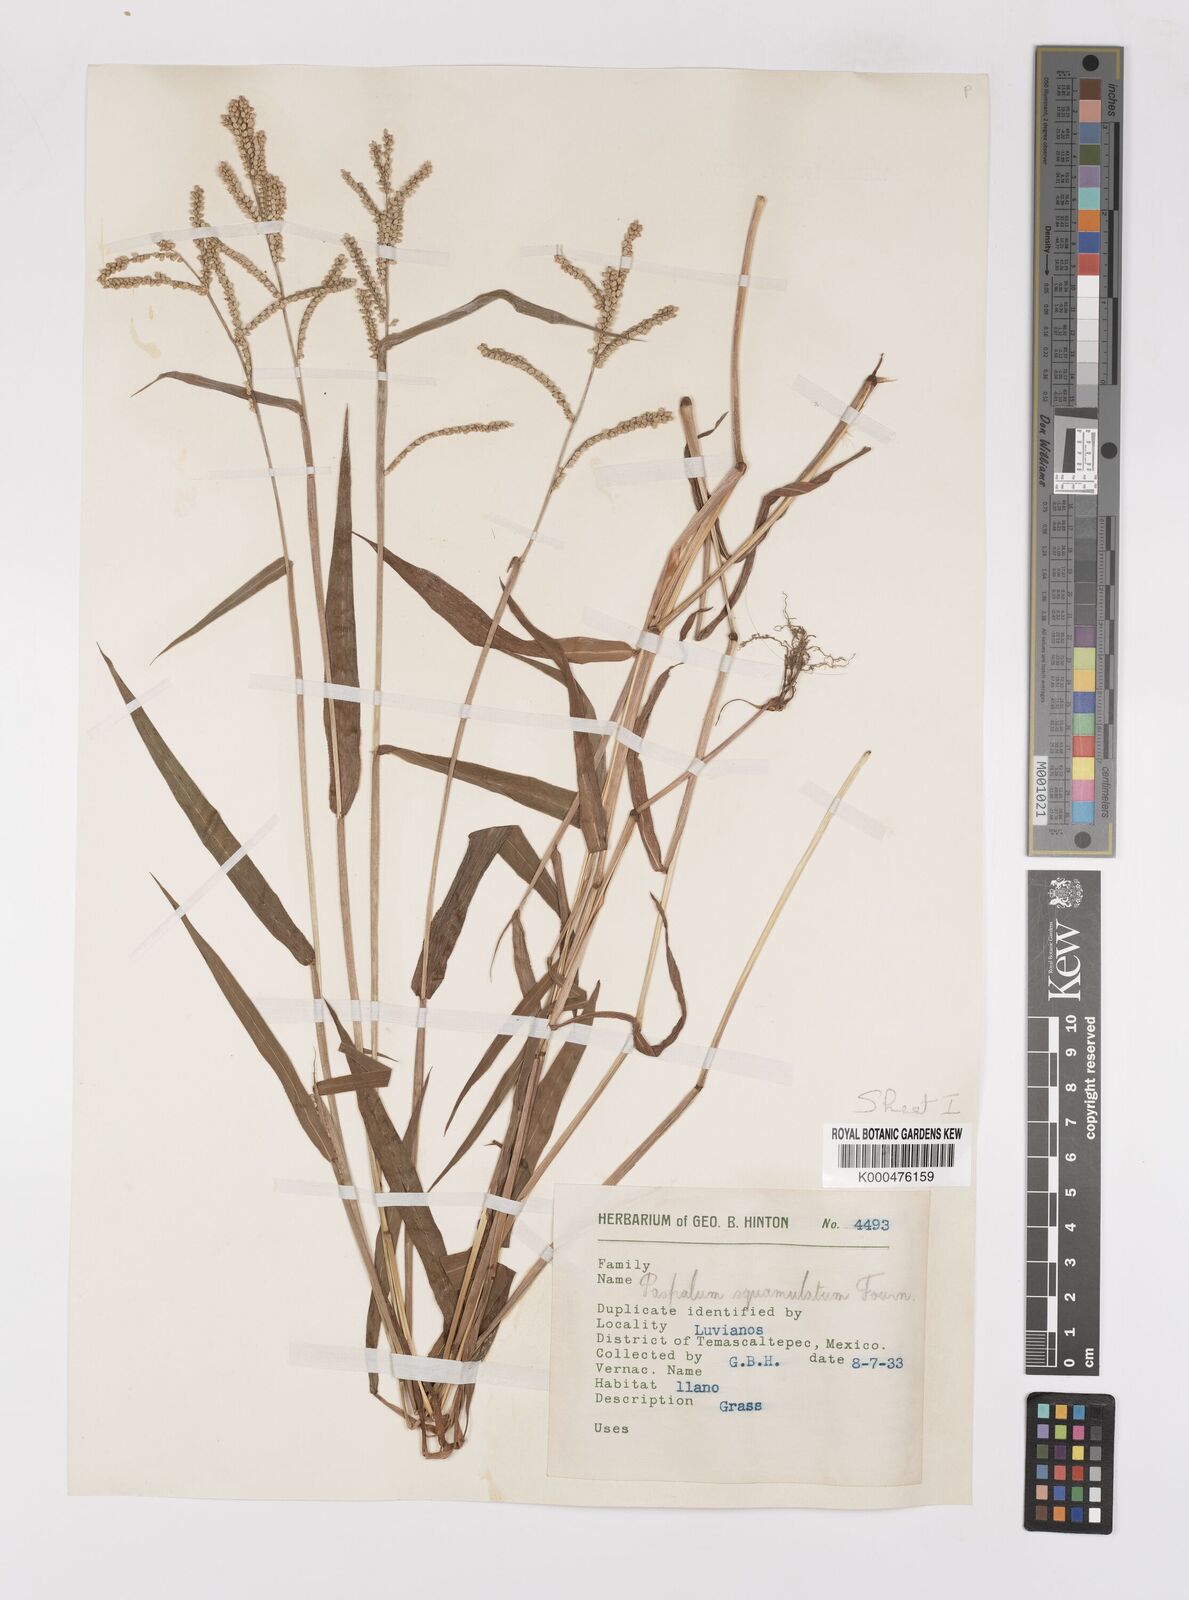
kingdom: Plantae
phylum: Tracheophyta
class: Liliopsida
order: Poales
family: Poaceae
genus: Paspalum
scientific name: Paspalum squamulatum
